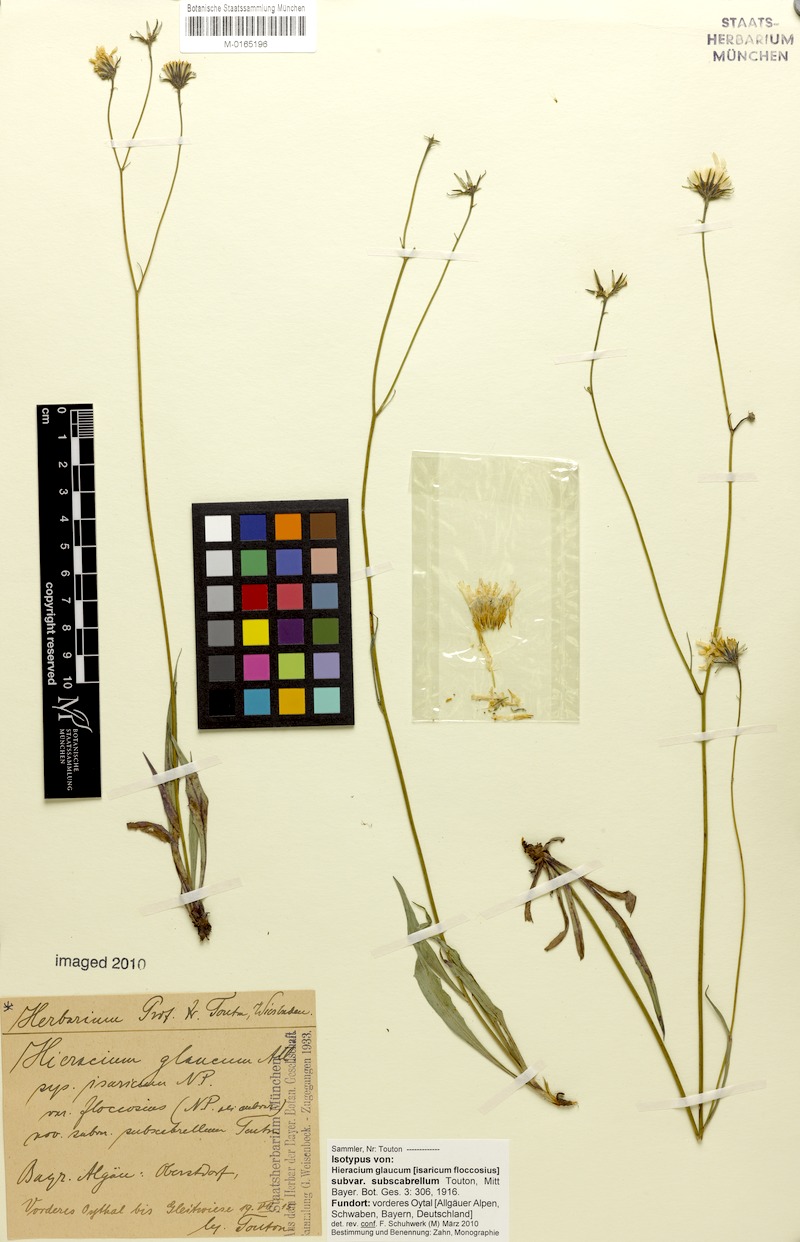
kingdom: Plantae
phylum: Tracheophyta
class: Magnoliopsida
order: Asterales
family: Asteraceae
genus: Hieracium
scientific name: Hieracium glaucum
